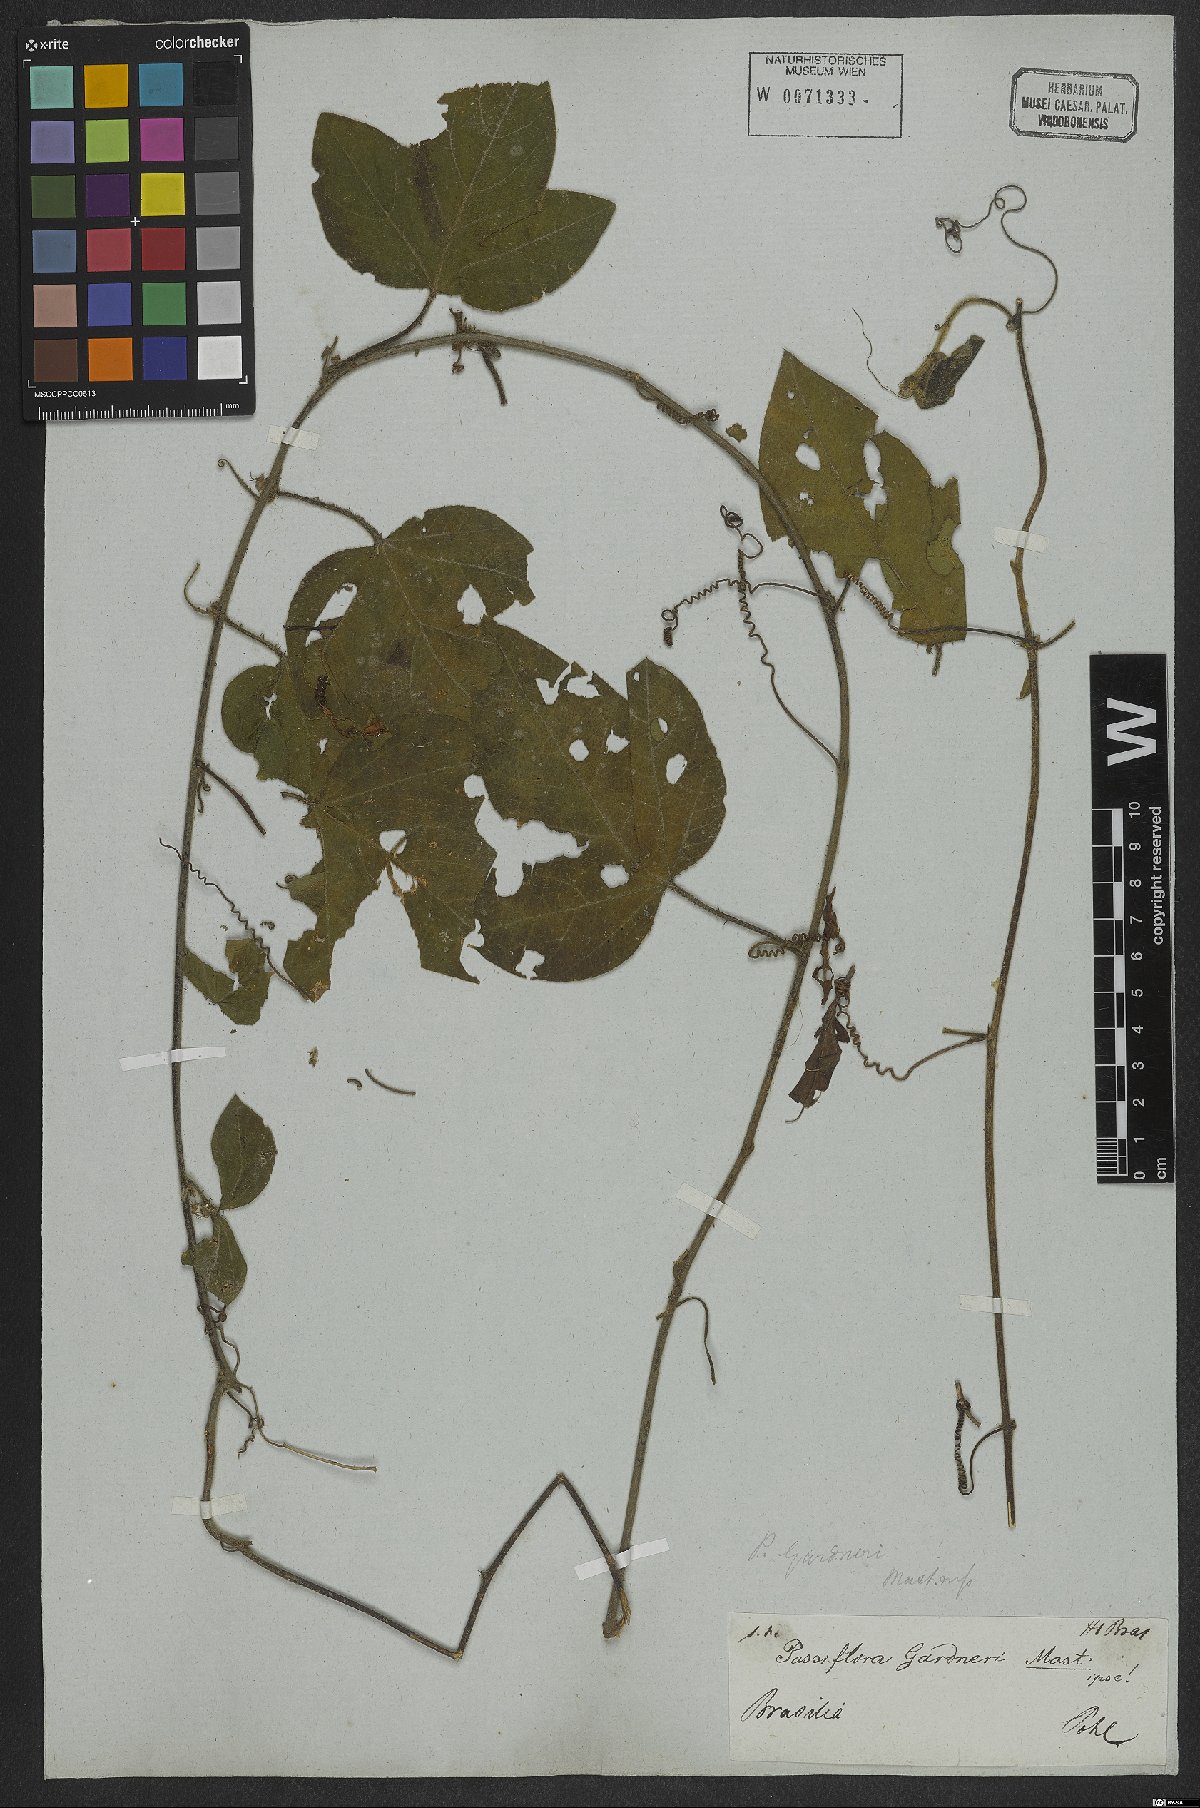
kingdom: Plantae
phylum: Tracheophyta
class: Magnoliopsida
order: Malpighiales
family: Passifloraceae
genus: Passiflora
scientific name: Passiflora gardneri
